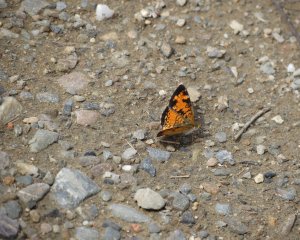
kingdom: Animalia
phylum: Arthropoda
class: Insecta
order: Lepidoptera
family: Nymphalidae
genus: Phyciodes
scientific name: Phyciodes tharos
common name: Northern Crescent
